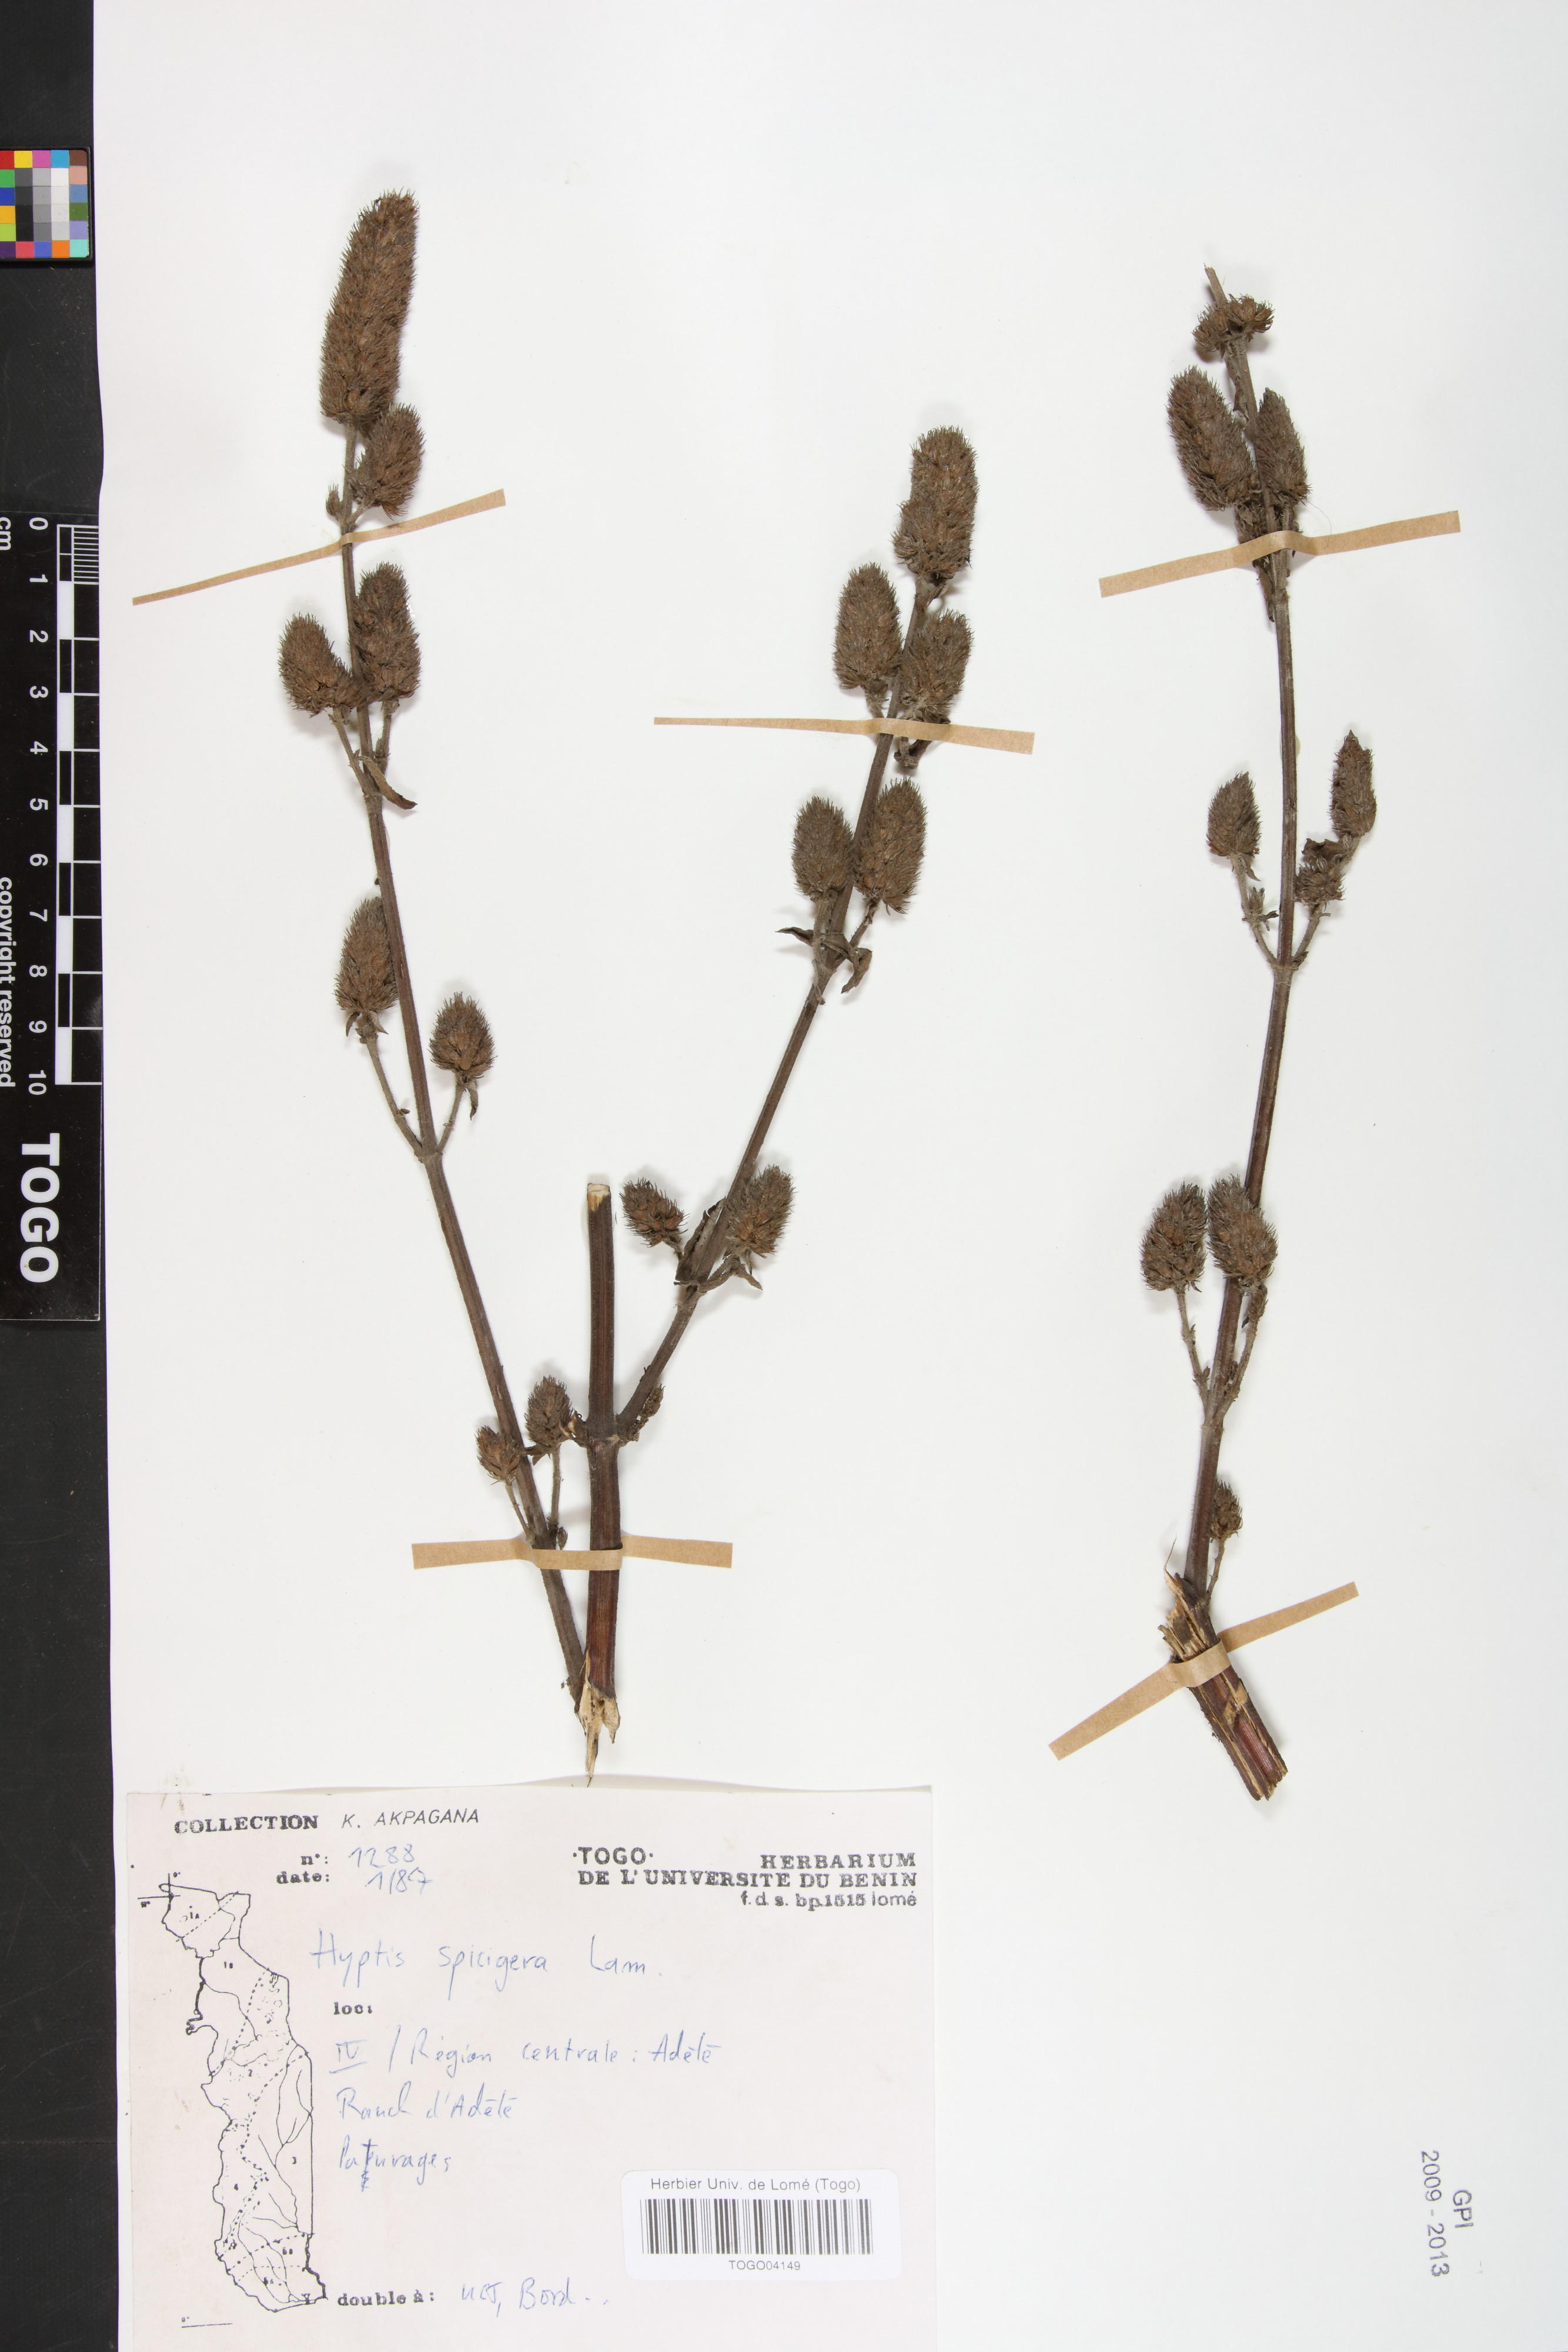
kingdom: Plantae
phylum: Tracheophyta
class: Magnoliopsida
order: Lamiales
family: Lamiaceae
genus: Cantinoa
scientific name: Cantinoa americana
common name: Black-sesame
